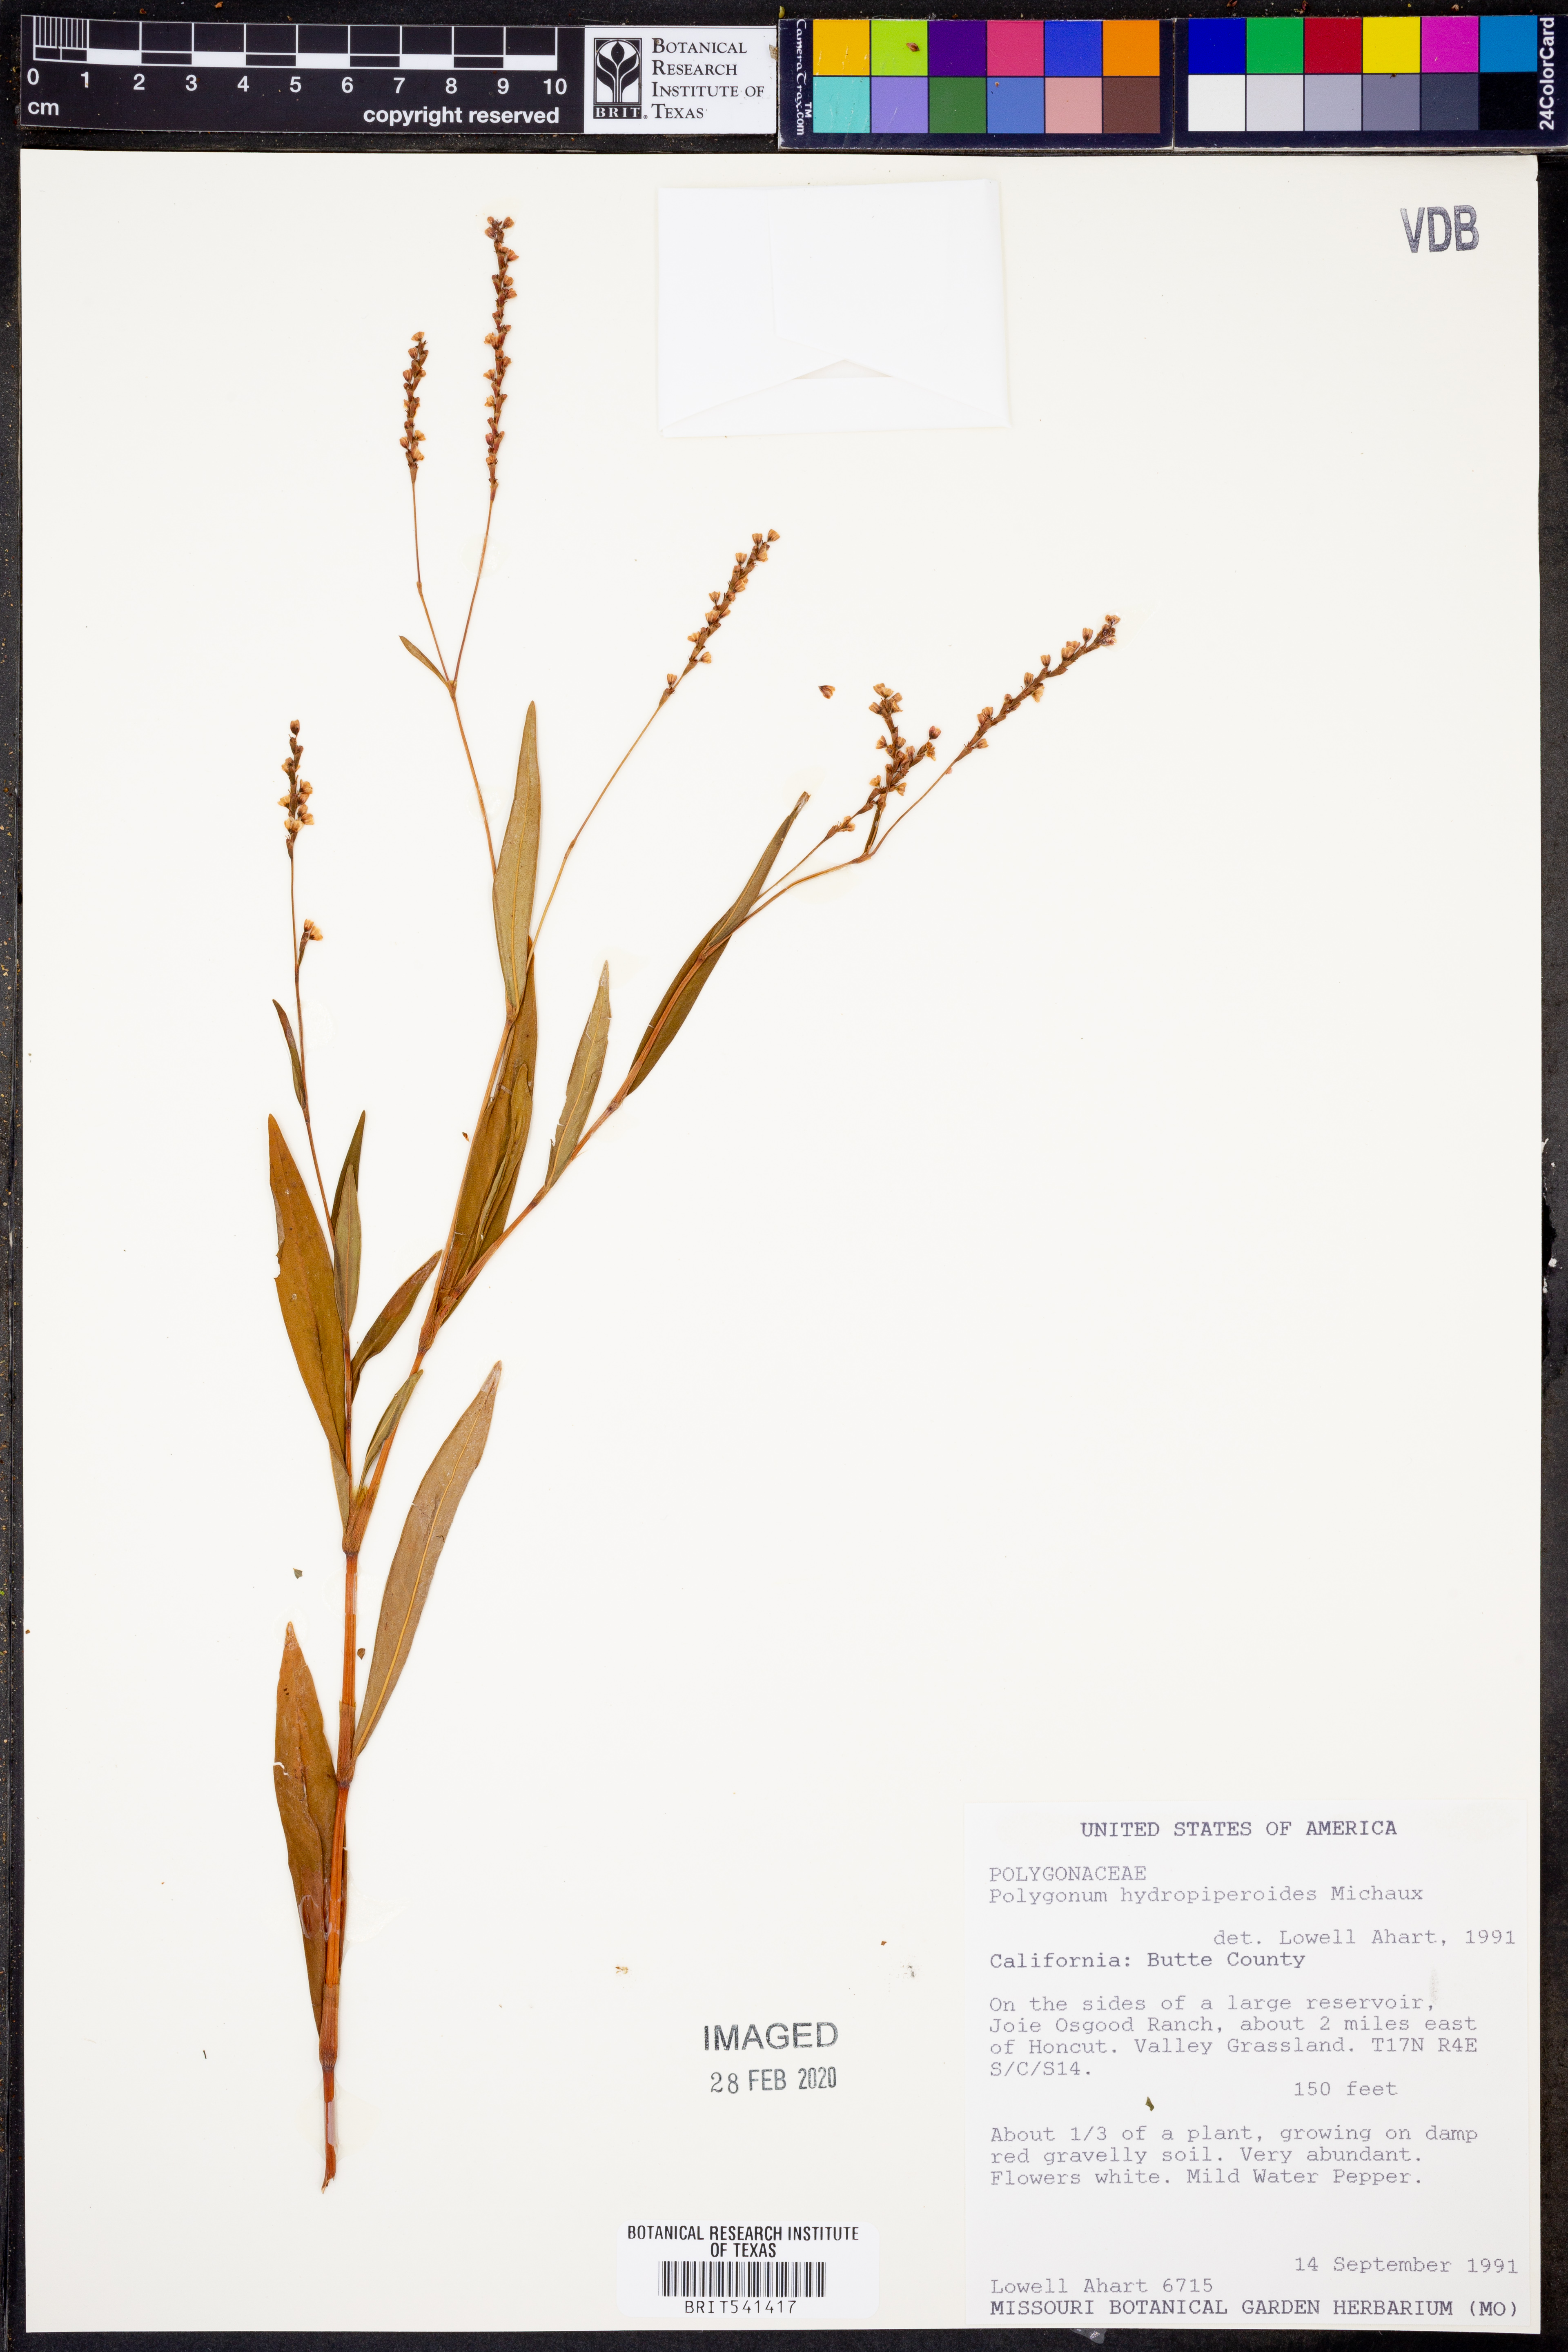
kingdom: Plantae
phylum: Tracheophyta
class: Magnoliopsida
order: Caryophyllales
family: Polygonaceae
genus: Persicaria
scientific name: Persicaria hydropiperoides
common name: Swamp smartweed
